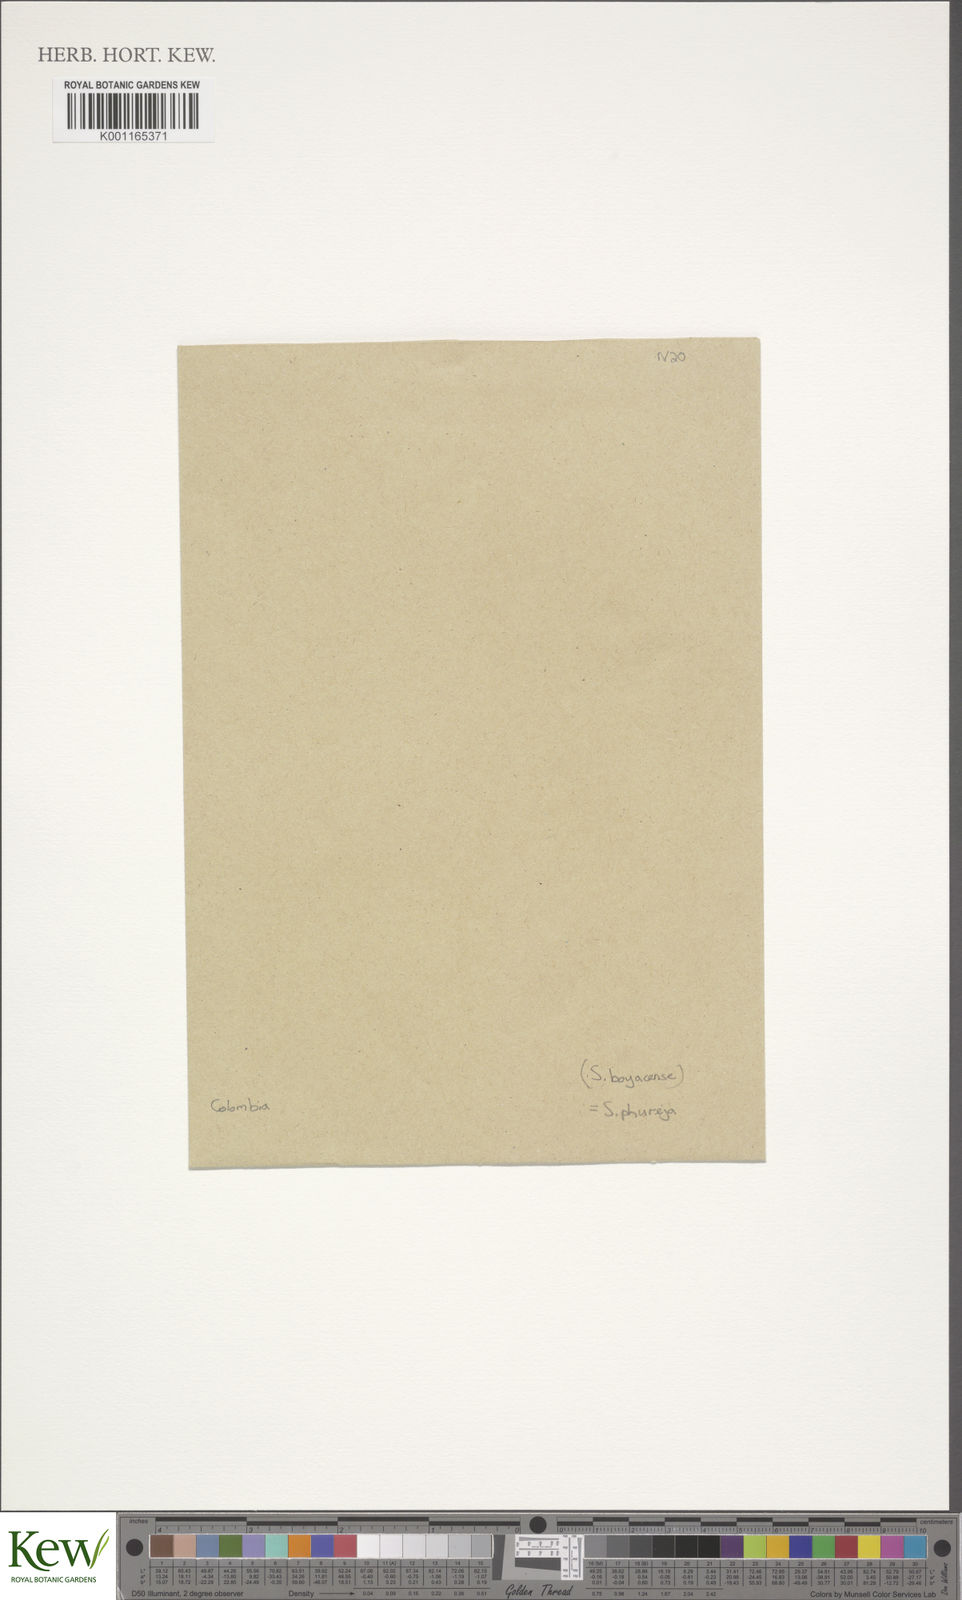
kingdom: Plantae
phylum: Tracheophyta
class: Magnoliopsida
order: Solanales
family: Solanaceae
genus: Solanum
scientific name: Solanum tuberosum
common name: Potato
